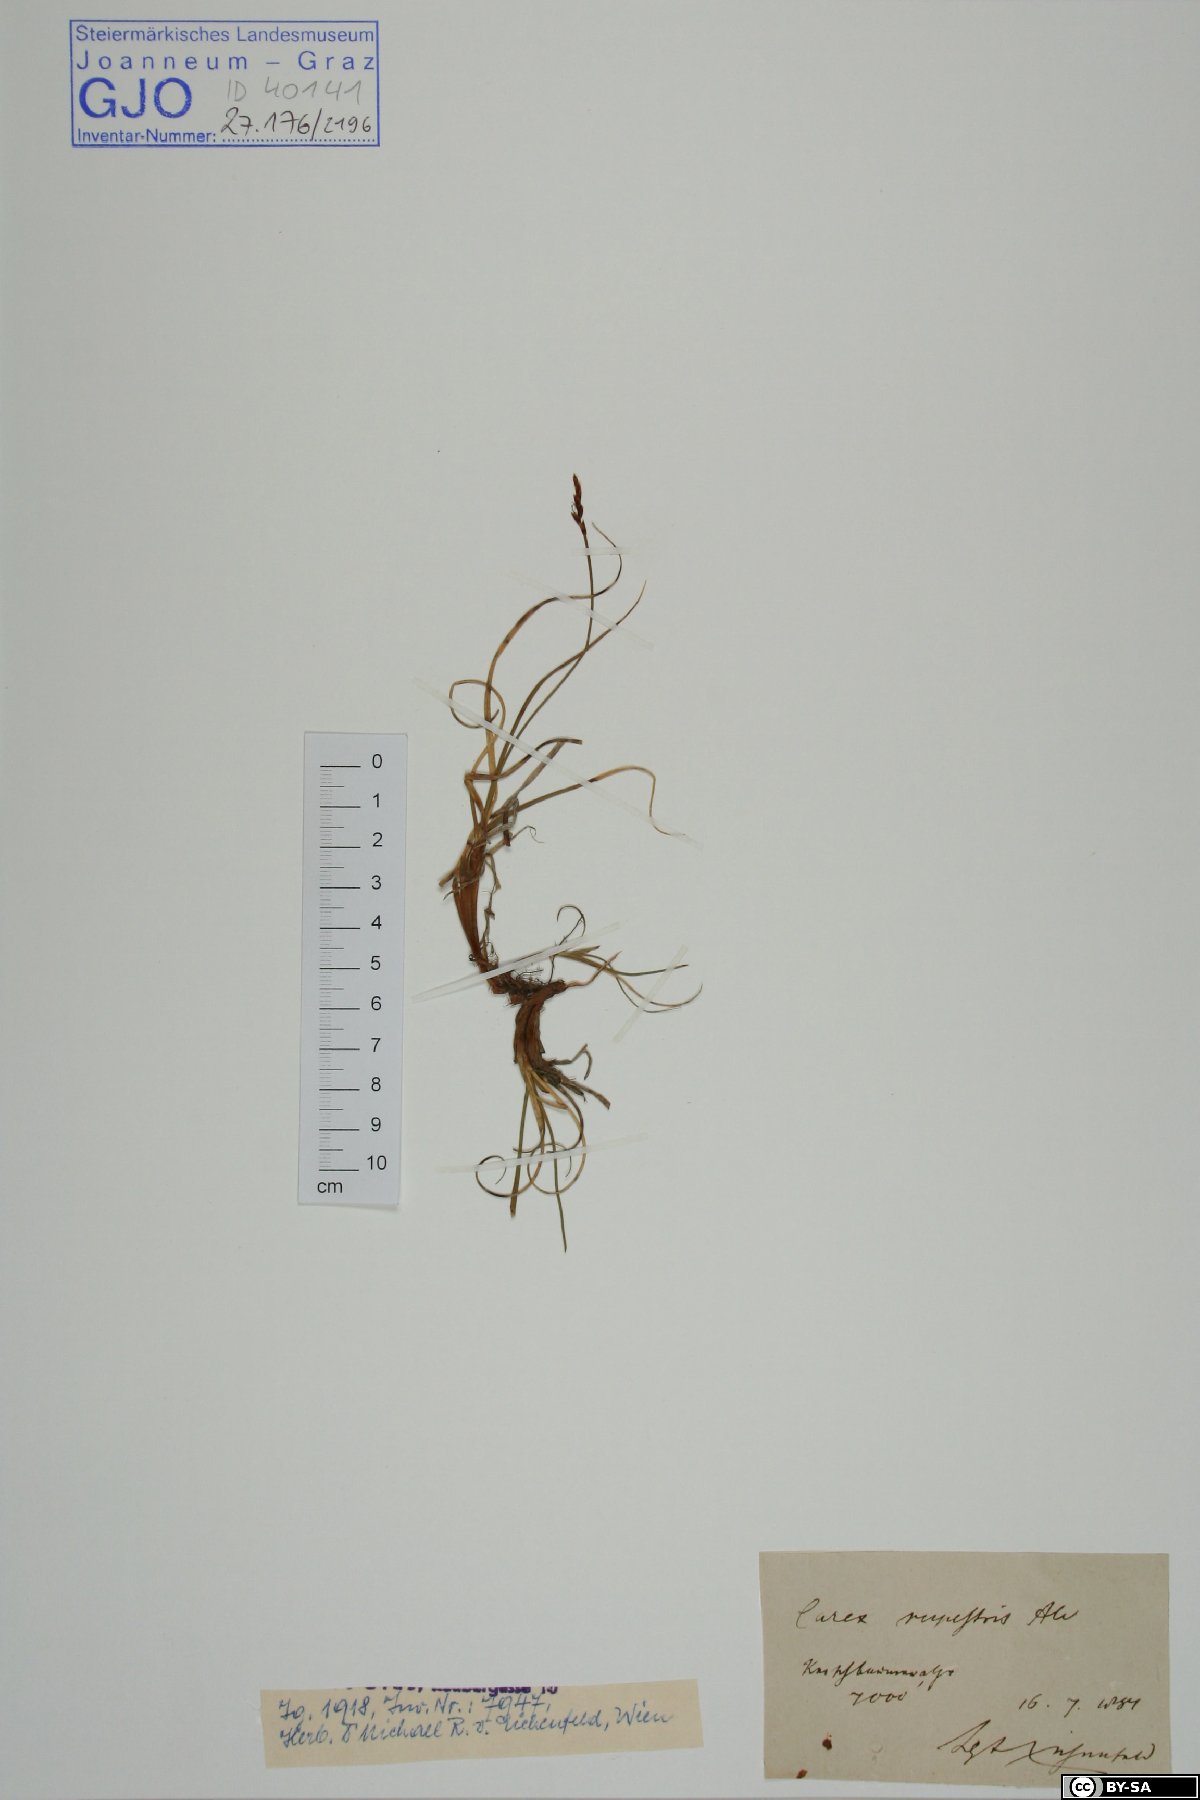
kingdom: Plantae
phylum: Tracheophyta
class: Liliopsida
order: Poales
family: Cyperaceae
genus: Carex
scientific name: Carex rupestris
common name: Rock sedge
